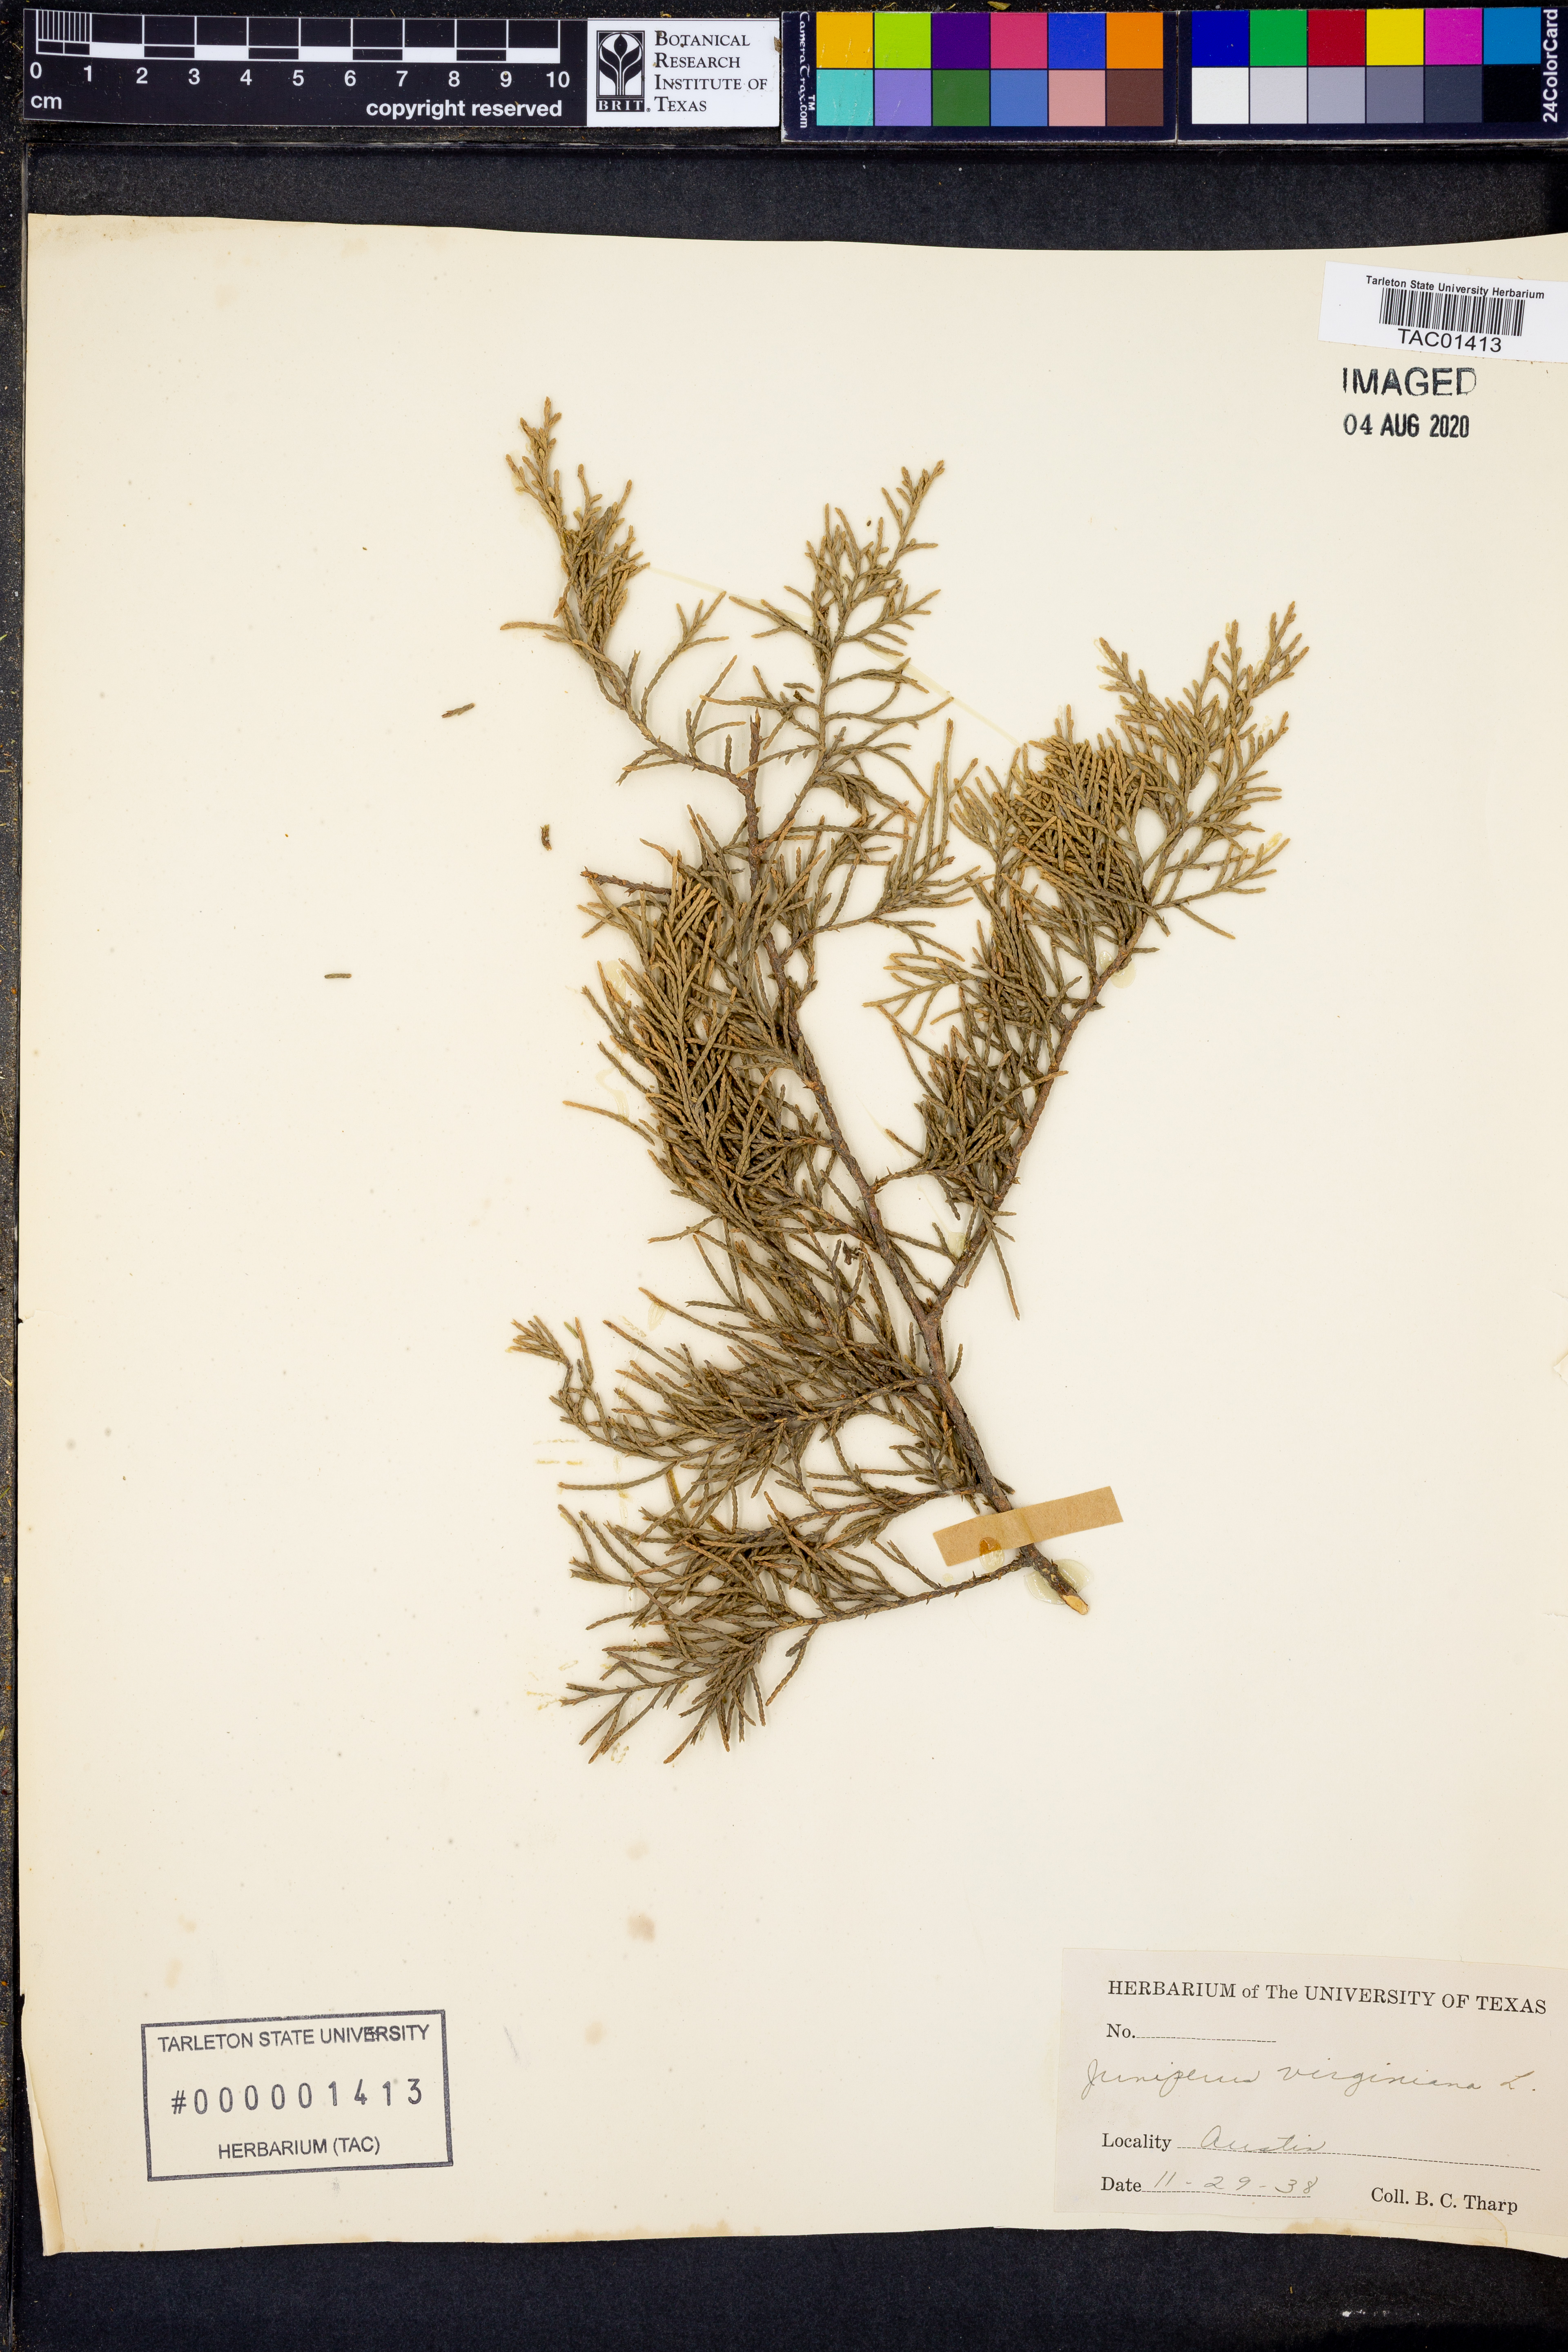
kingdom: Plantae
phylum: Tracheophyta
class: Pinopsida
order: Pinales
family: Cupressaceae
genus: Juniperus
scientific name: Juniperus virginiana
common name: Red juniper
